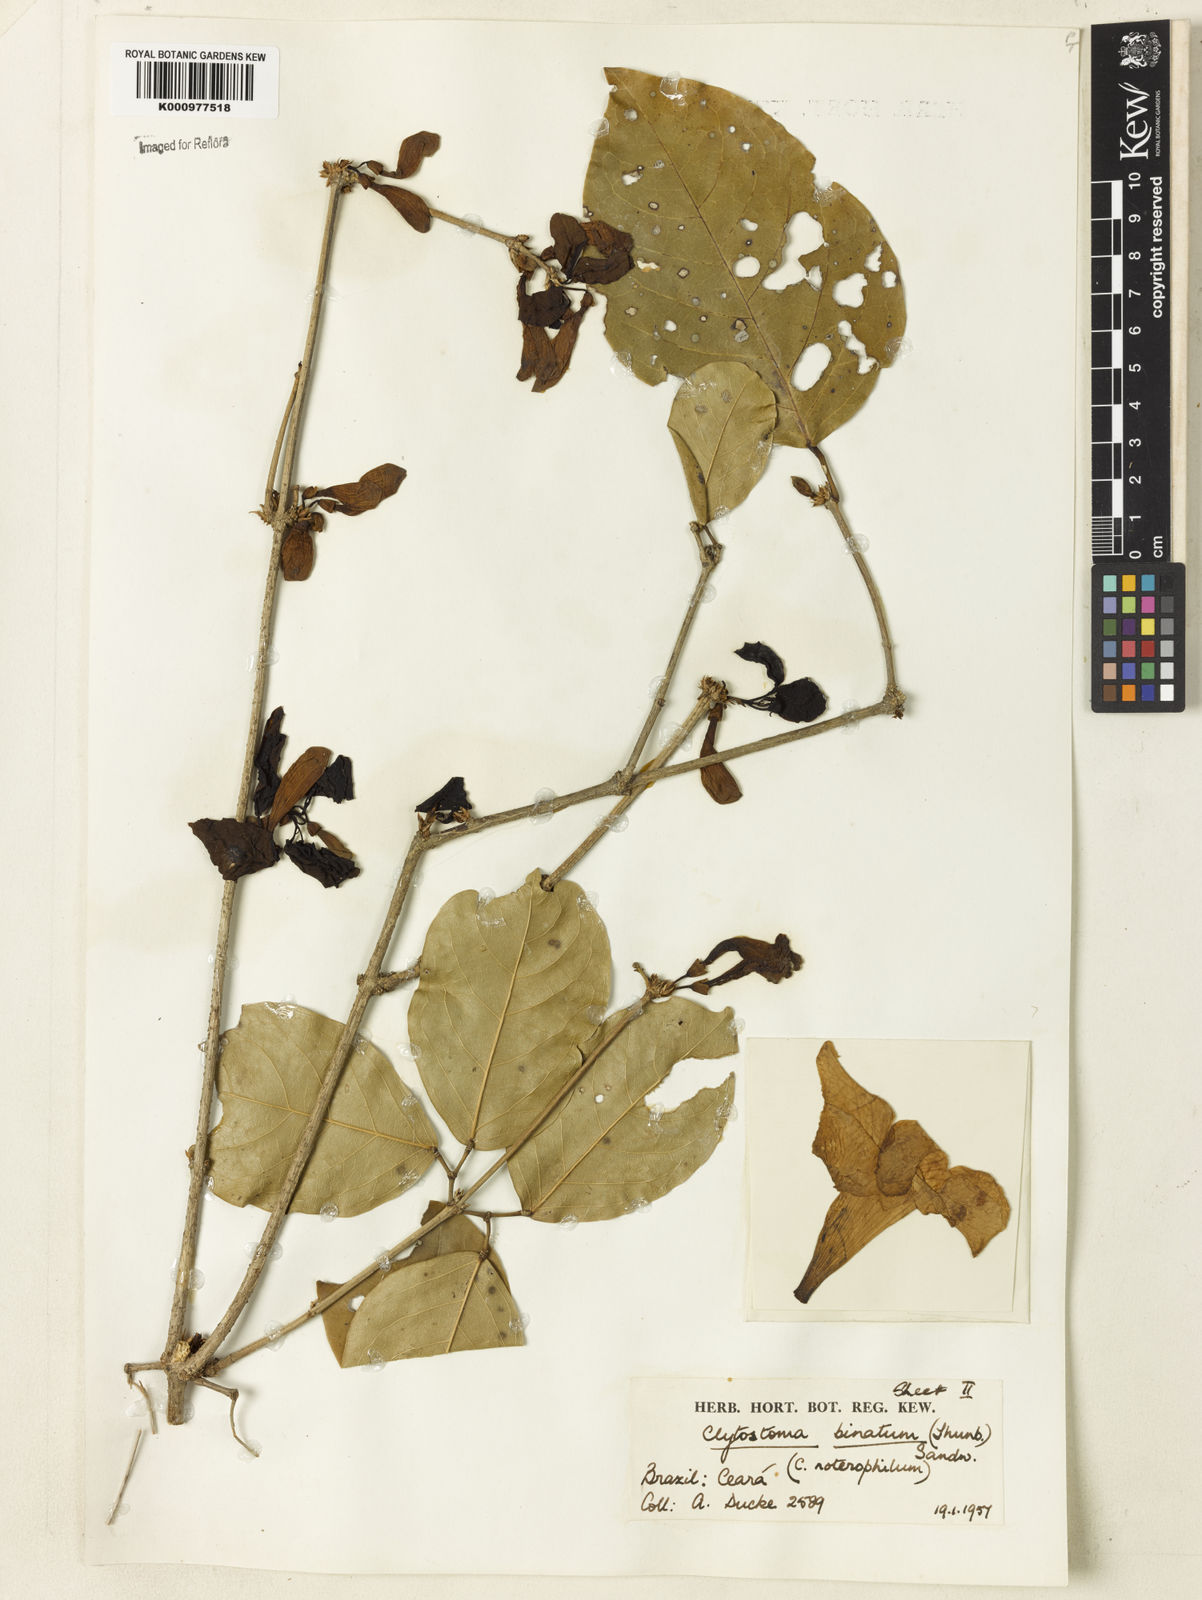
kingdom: Plantae
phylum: Tracheophyta
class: Magnoliopsida
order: Lamiales
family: Bignoniaceae
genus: Bignonia
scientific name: Bignonia binata
